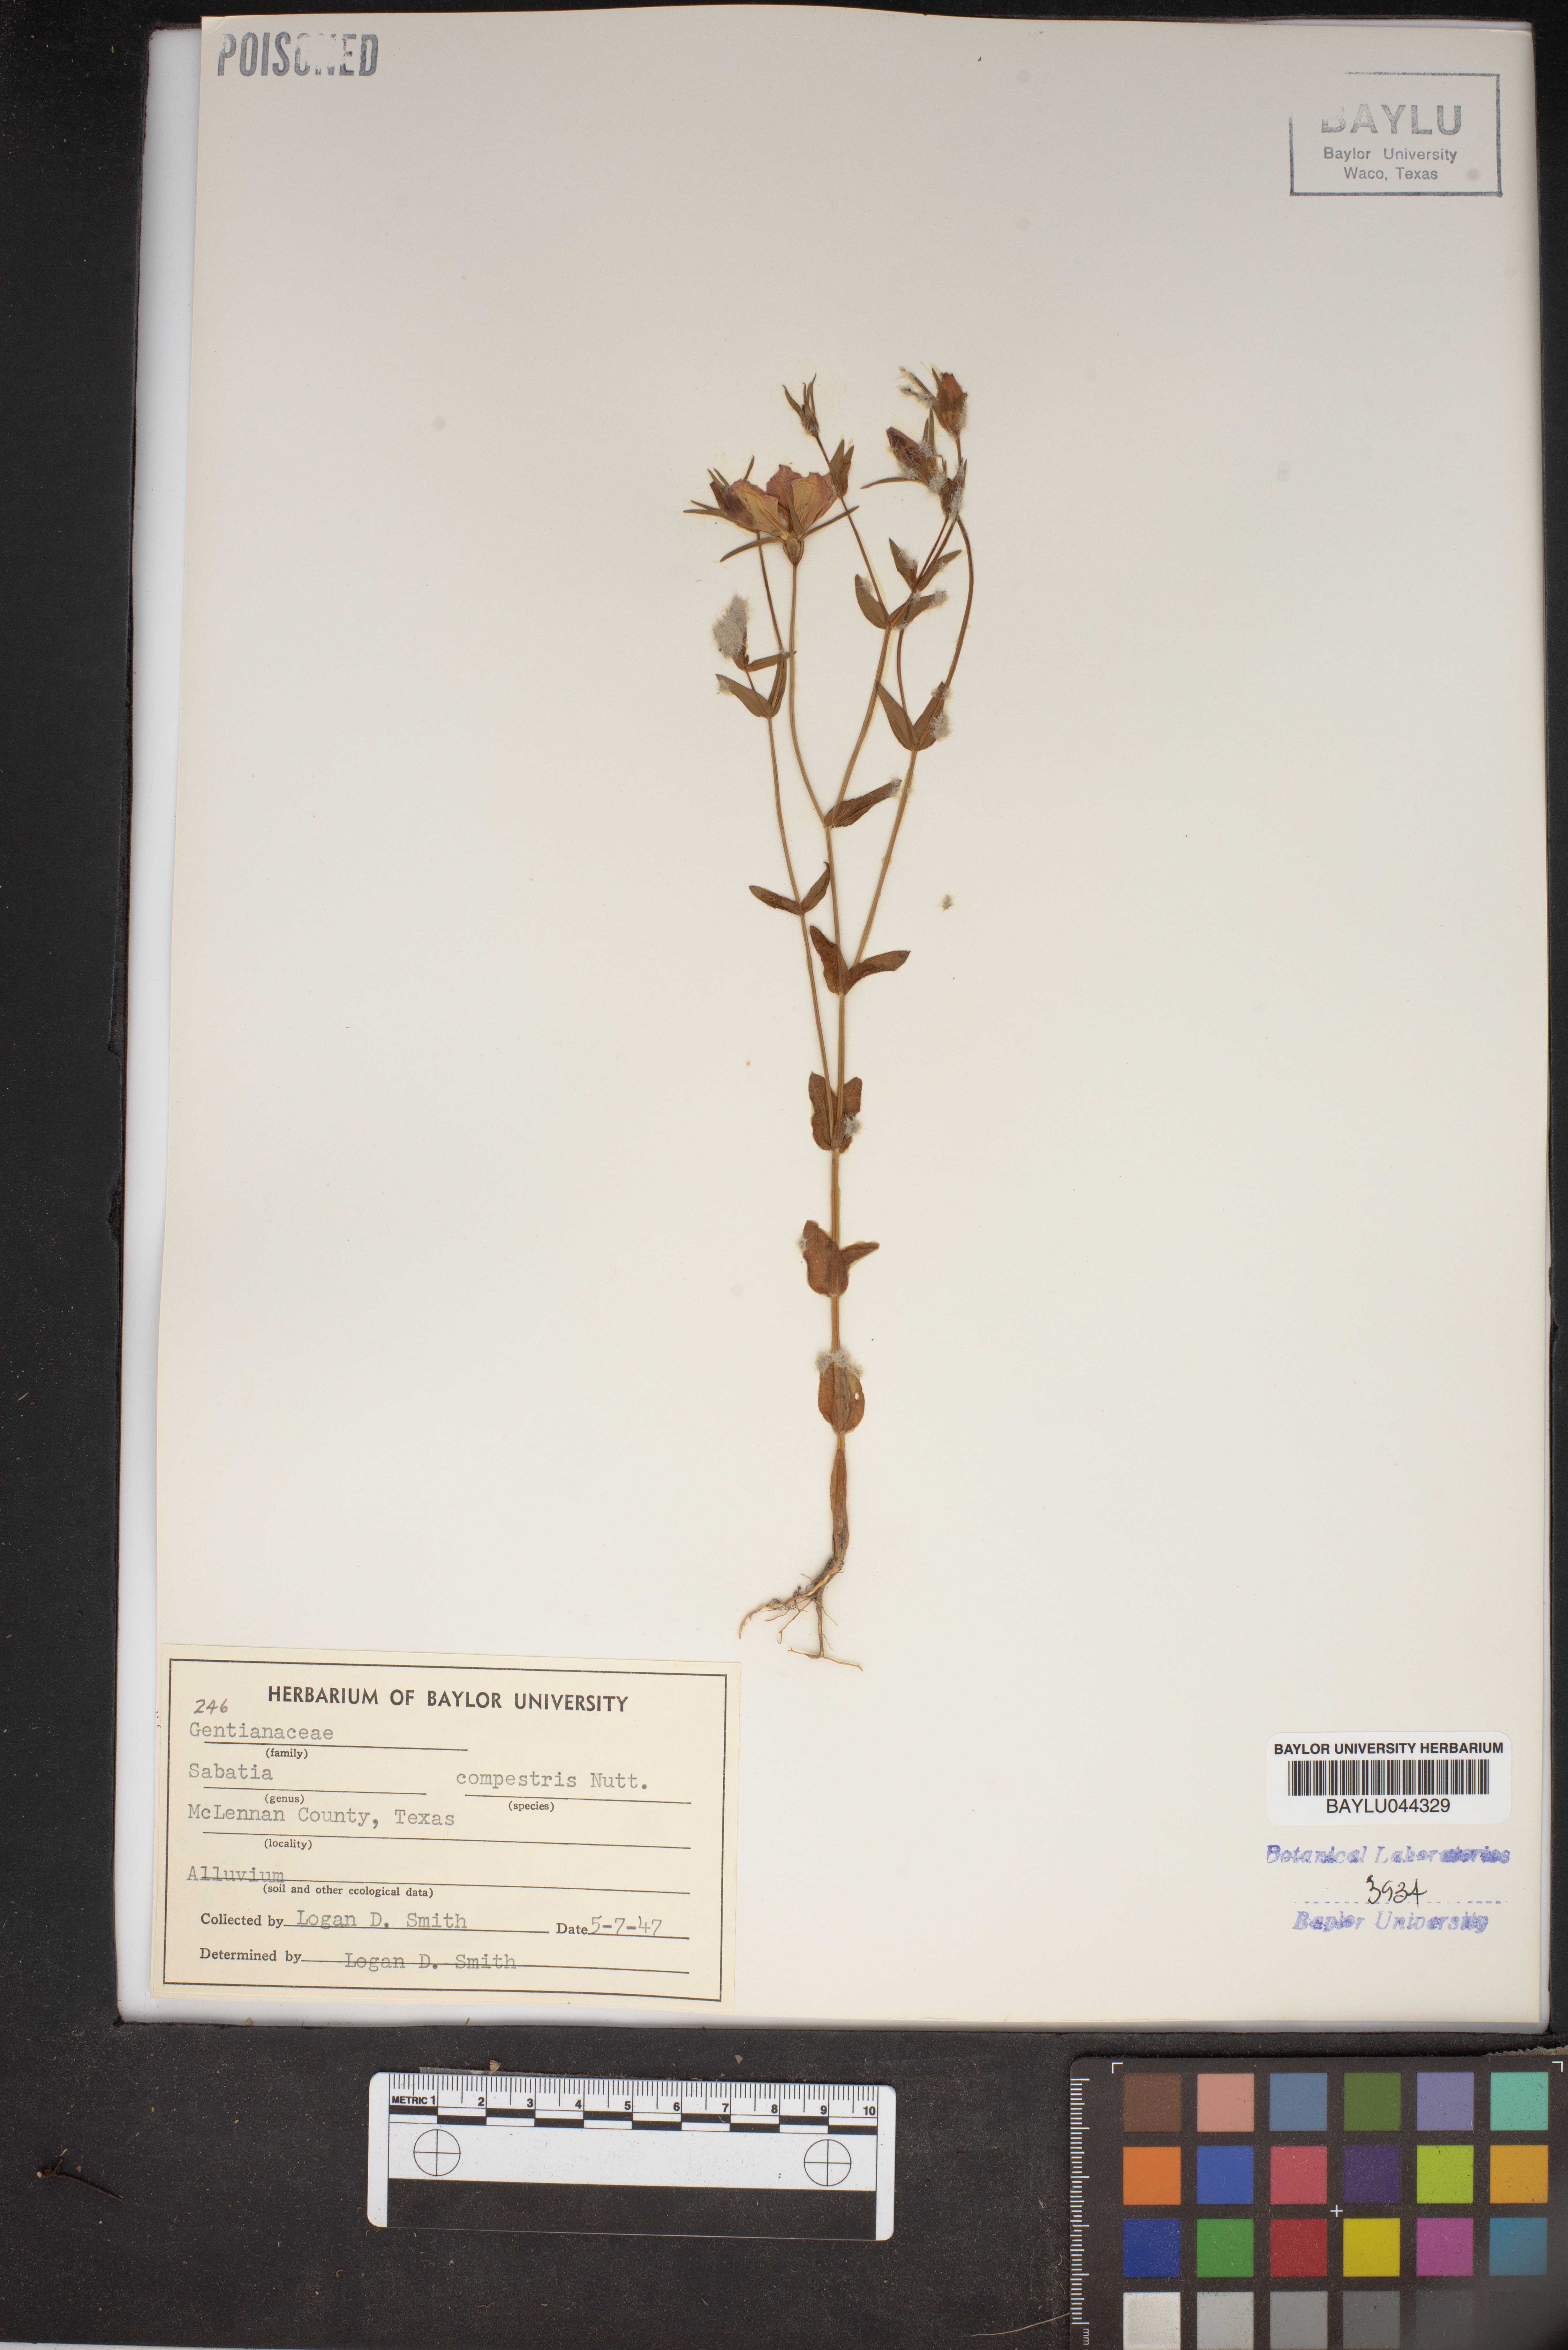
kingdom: Plantae
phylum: Tracheophyta
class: Magnoliopsida
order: Gentianales
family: Gentianaceae
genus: Sabatia
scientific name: Sabatia campestris
